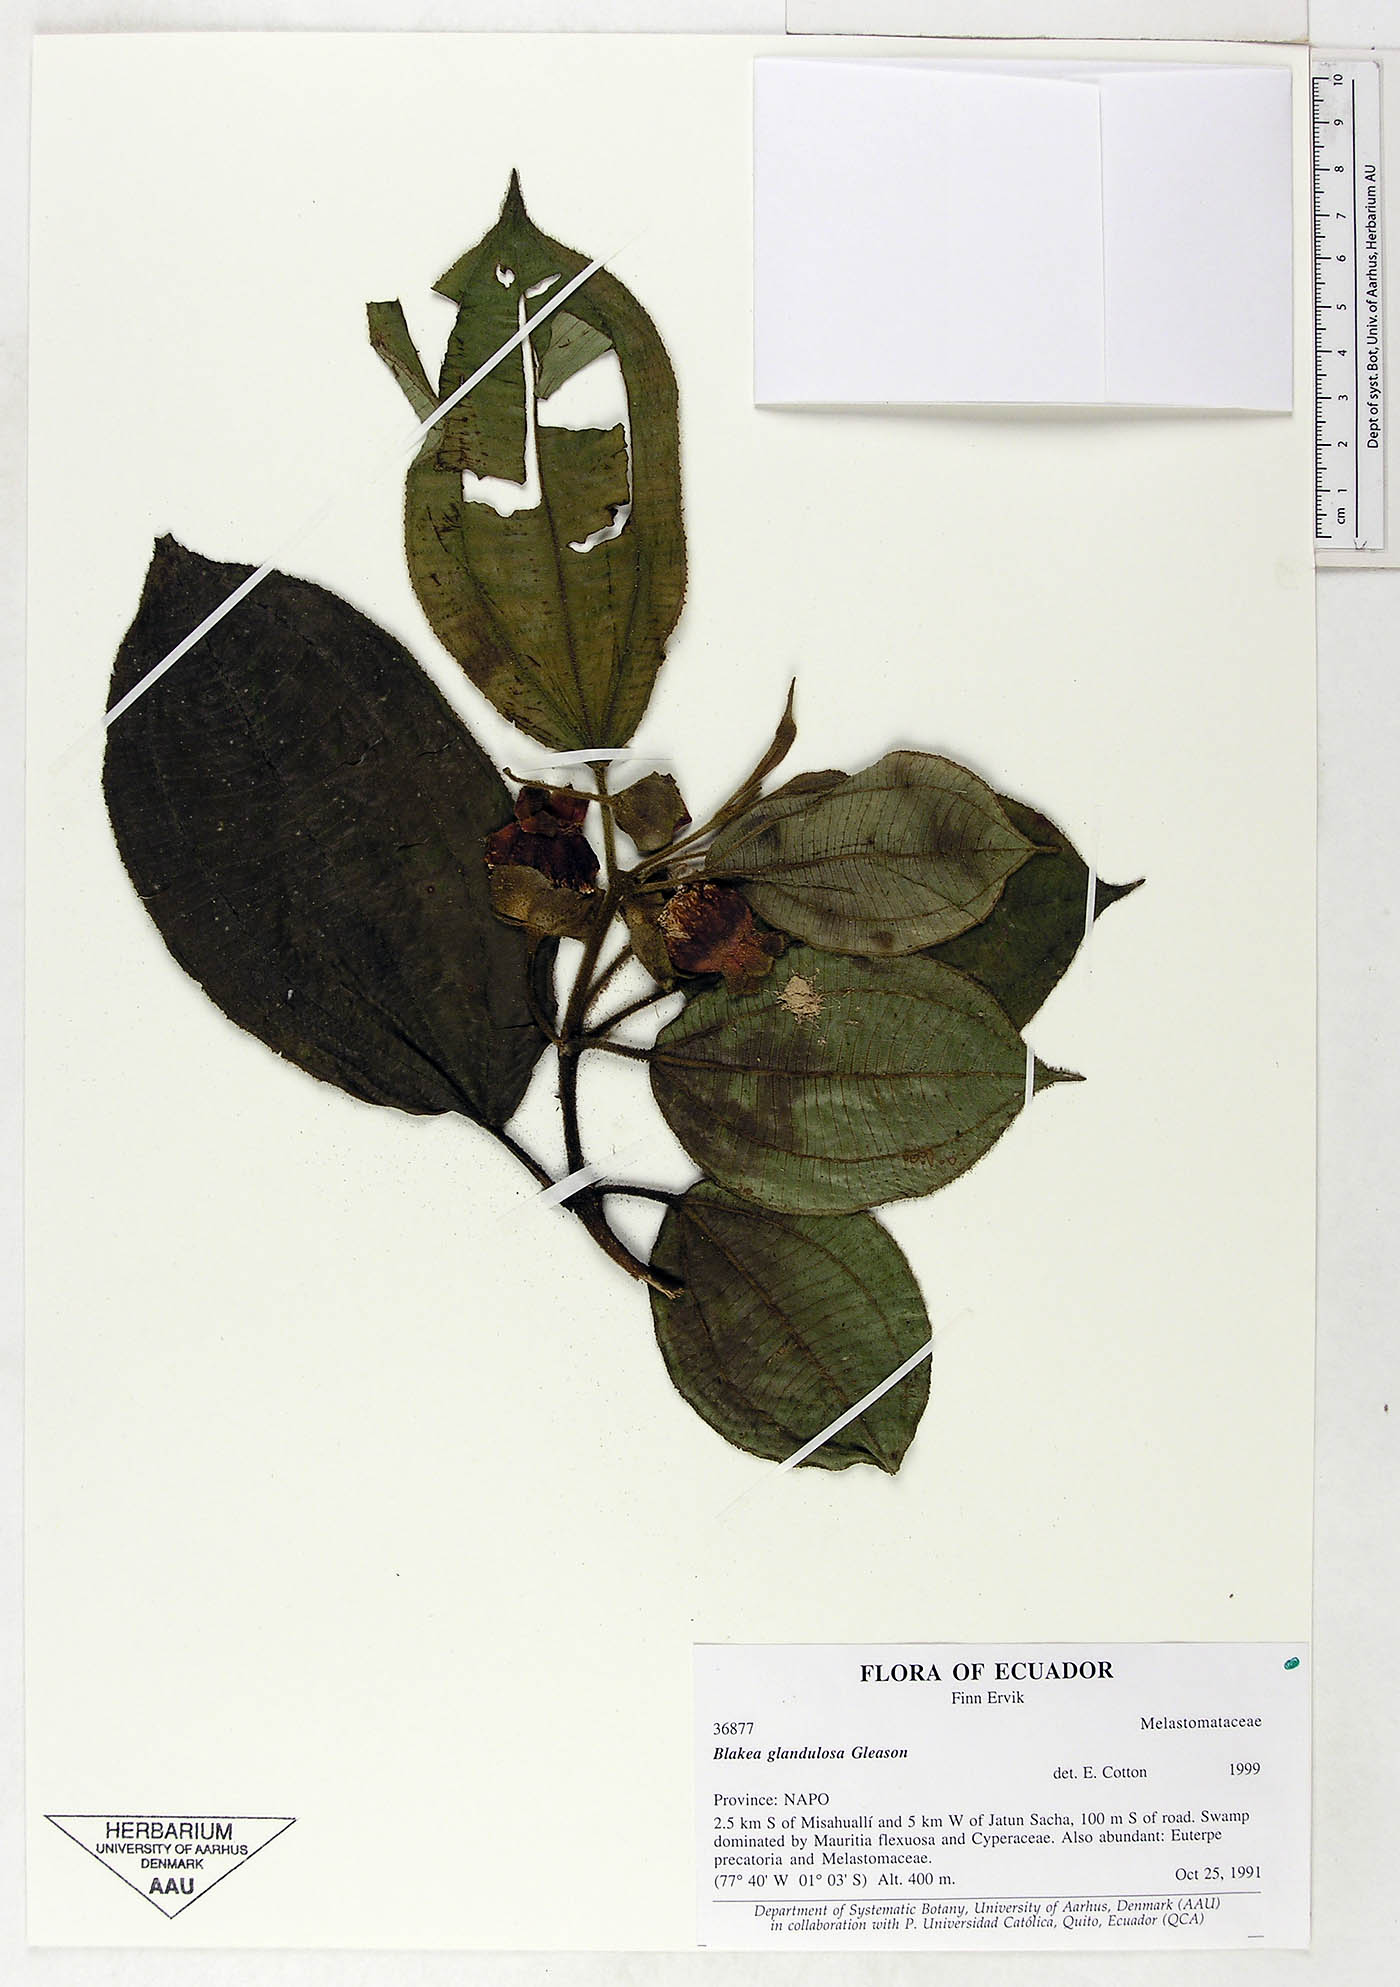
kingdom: Plantae
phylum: Tracheophyta
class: Magnoliopsida
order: Myrtales
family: Melastomataceae
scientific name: Melastomataceae
